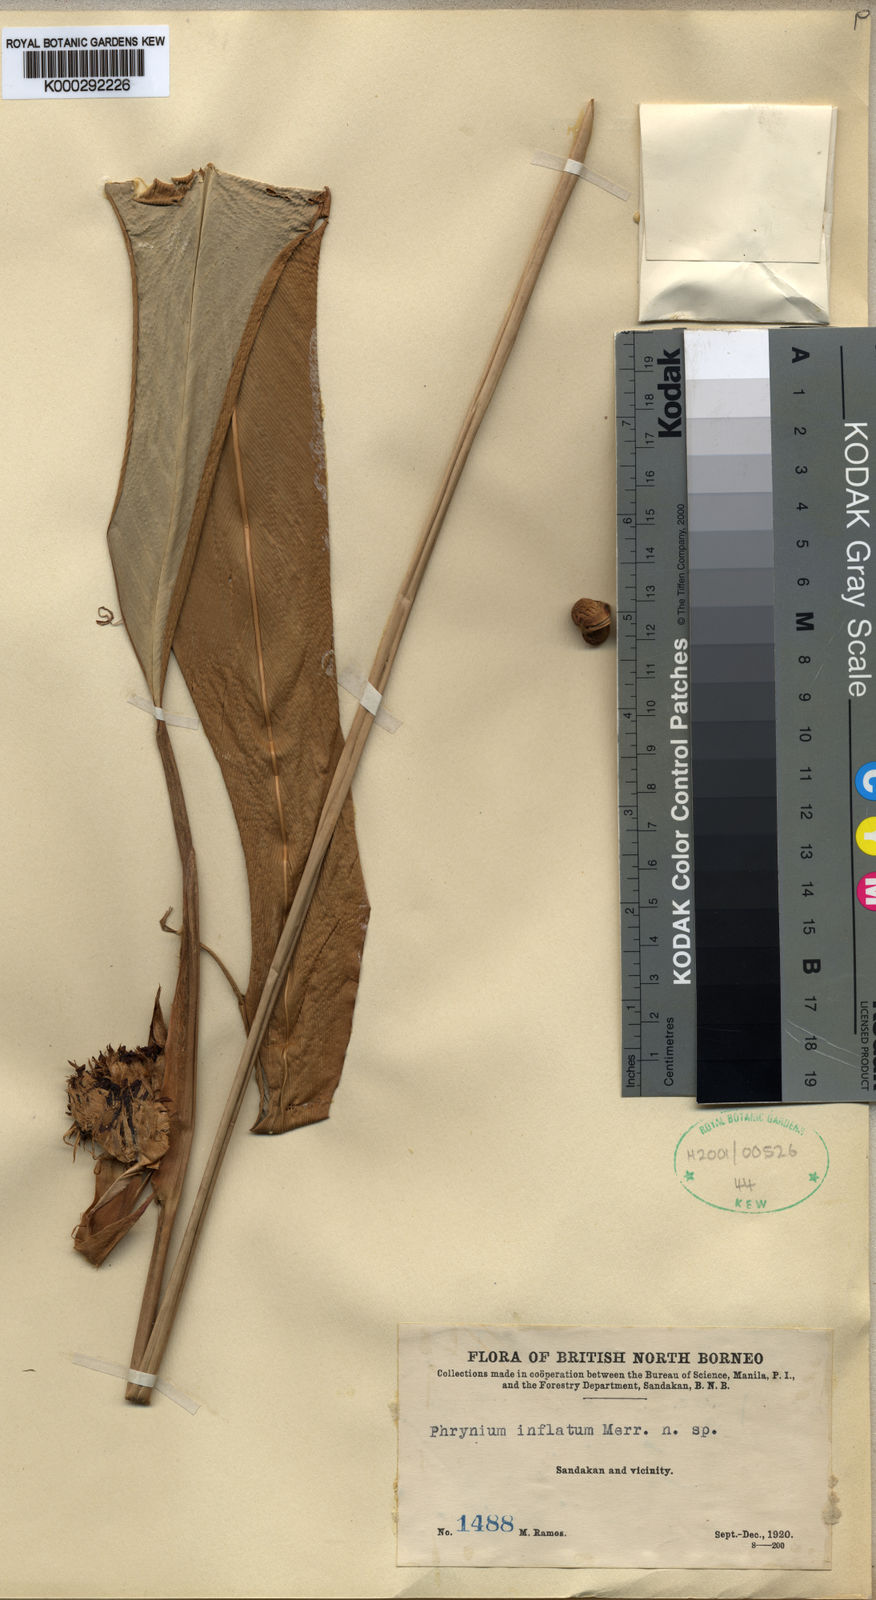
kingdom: Plantae
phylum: Tracheophyta
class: Liliopsida
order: Zingiberales
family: Marantaceae
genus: Phrynium
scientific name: Phrynium hirtum
